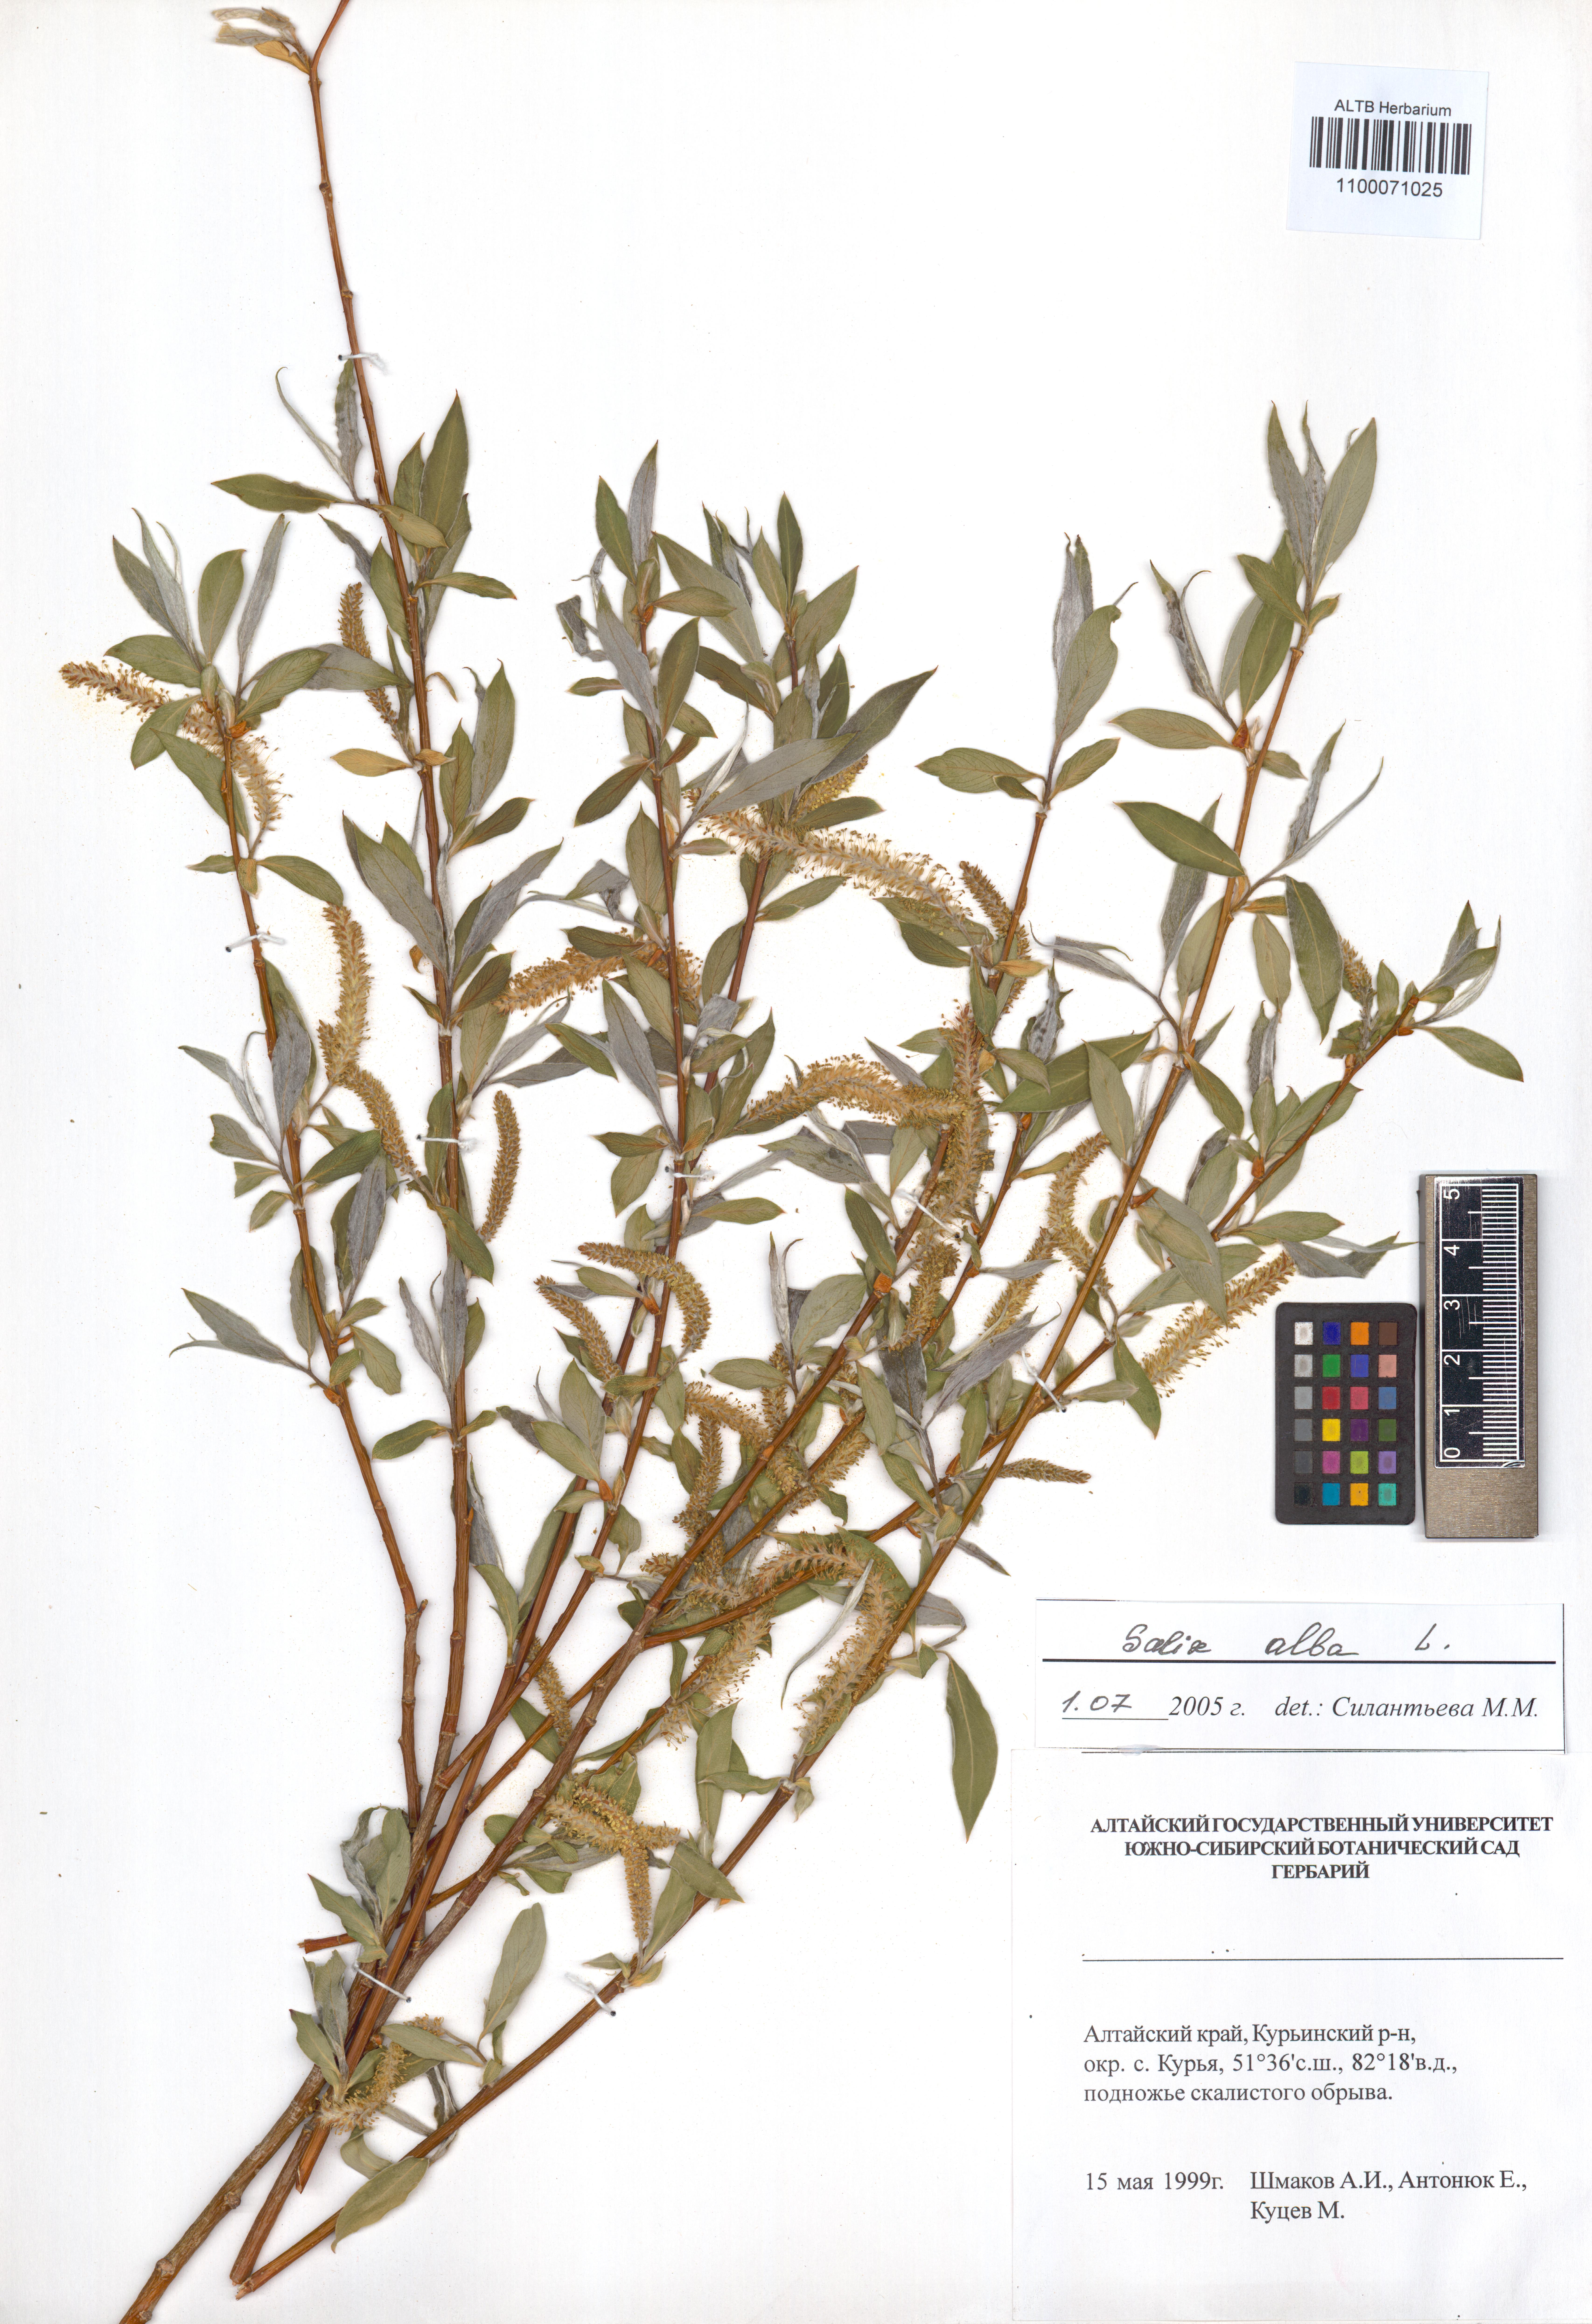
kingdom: Plantae
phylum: Tracheophyta
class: Magnoliopsida
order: Malpighiales
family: Salicaceae
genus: Salix
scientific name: Salix alba
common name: White willow
